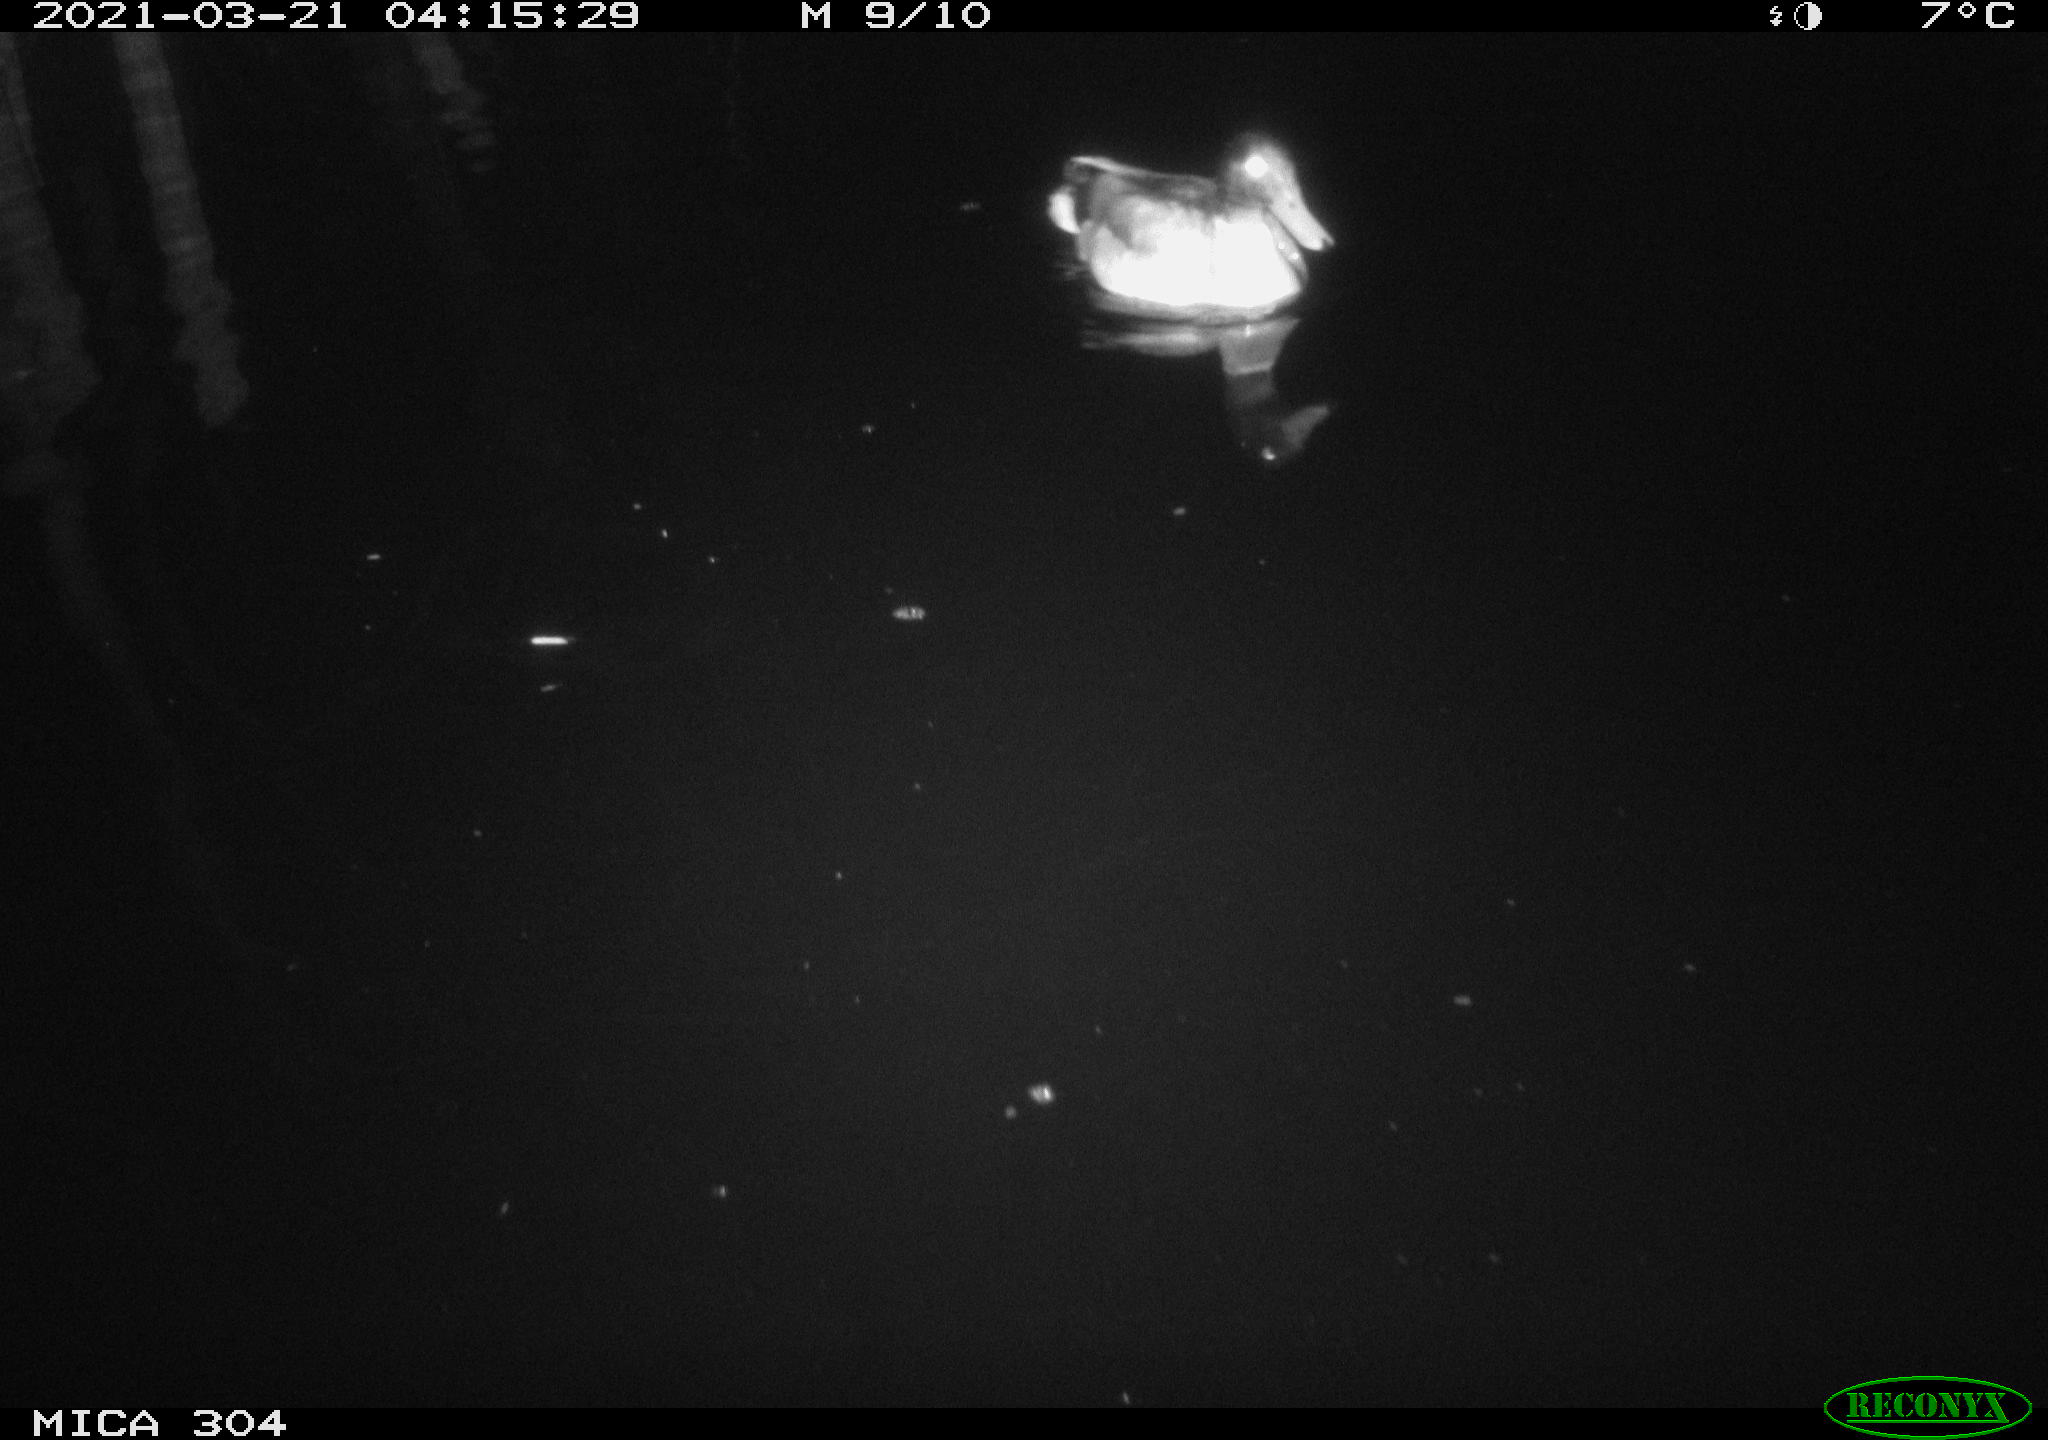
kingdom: Animalia
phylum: Chordata
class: Aves
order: Anseriformes
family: Anatidae
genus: Anas
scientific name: Anas platyrhynchos
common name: Mallard
